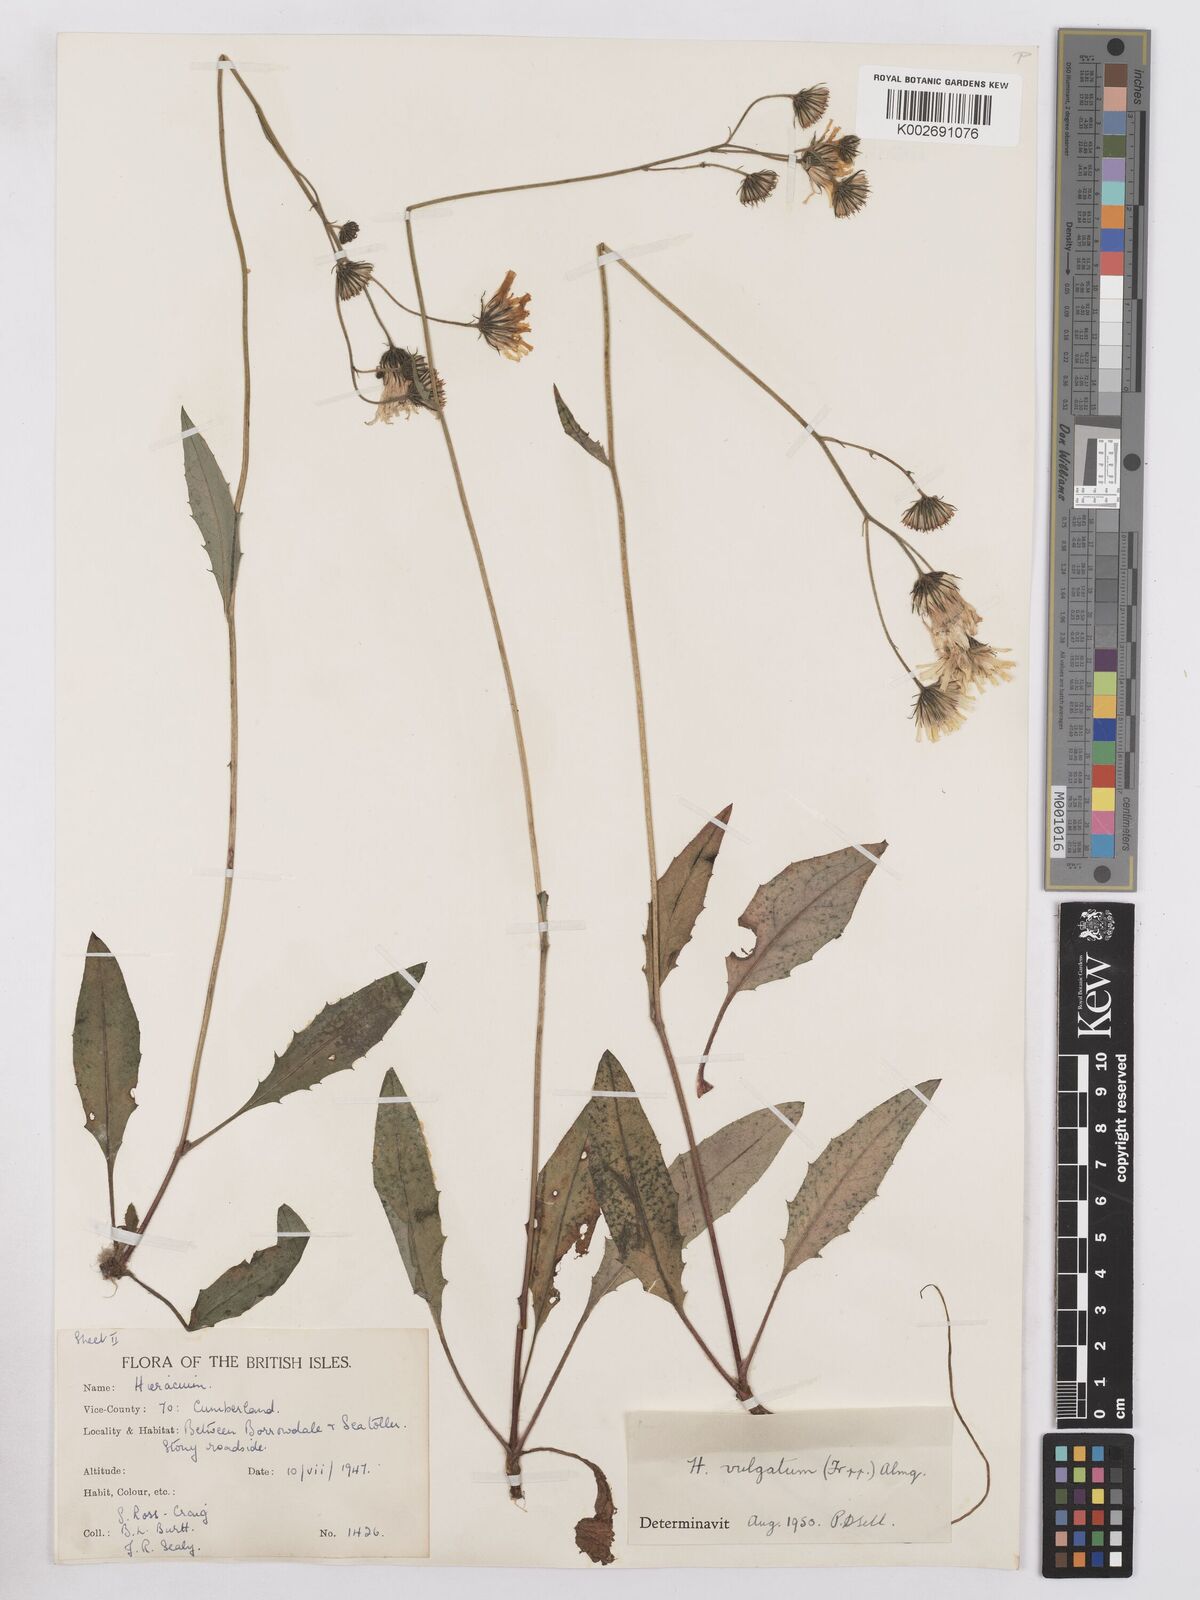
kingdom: Plantae
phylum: Tracheophyta
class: Magnoliopsida
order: Asterales
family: Asteraceae
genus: Hieracium
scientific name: Hieracium lachenalii
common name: Common hawkweed
